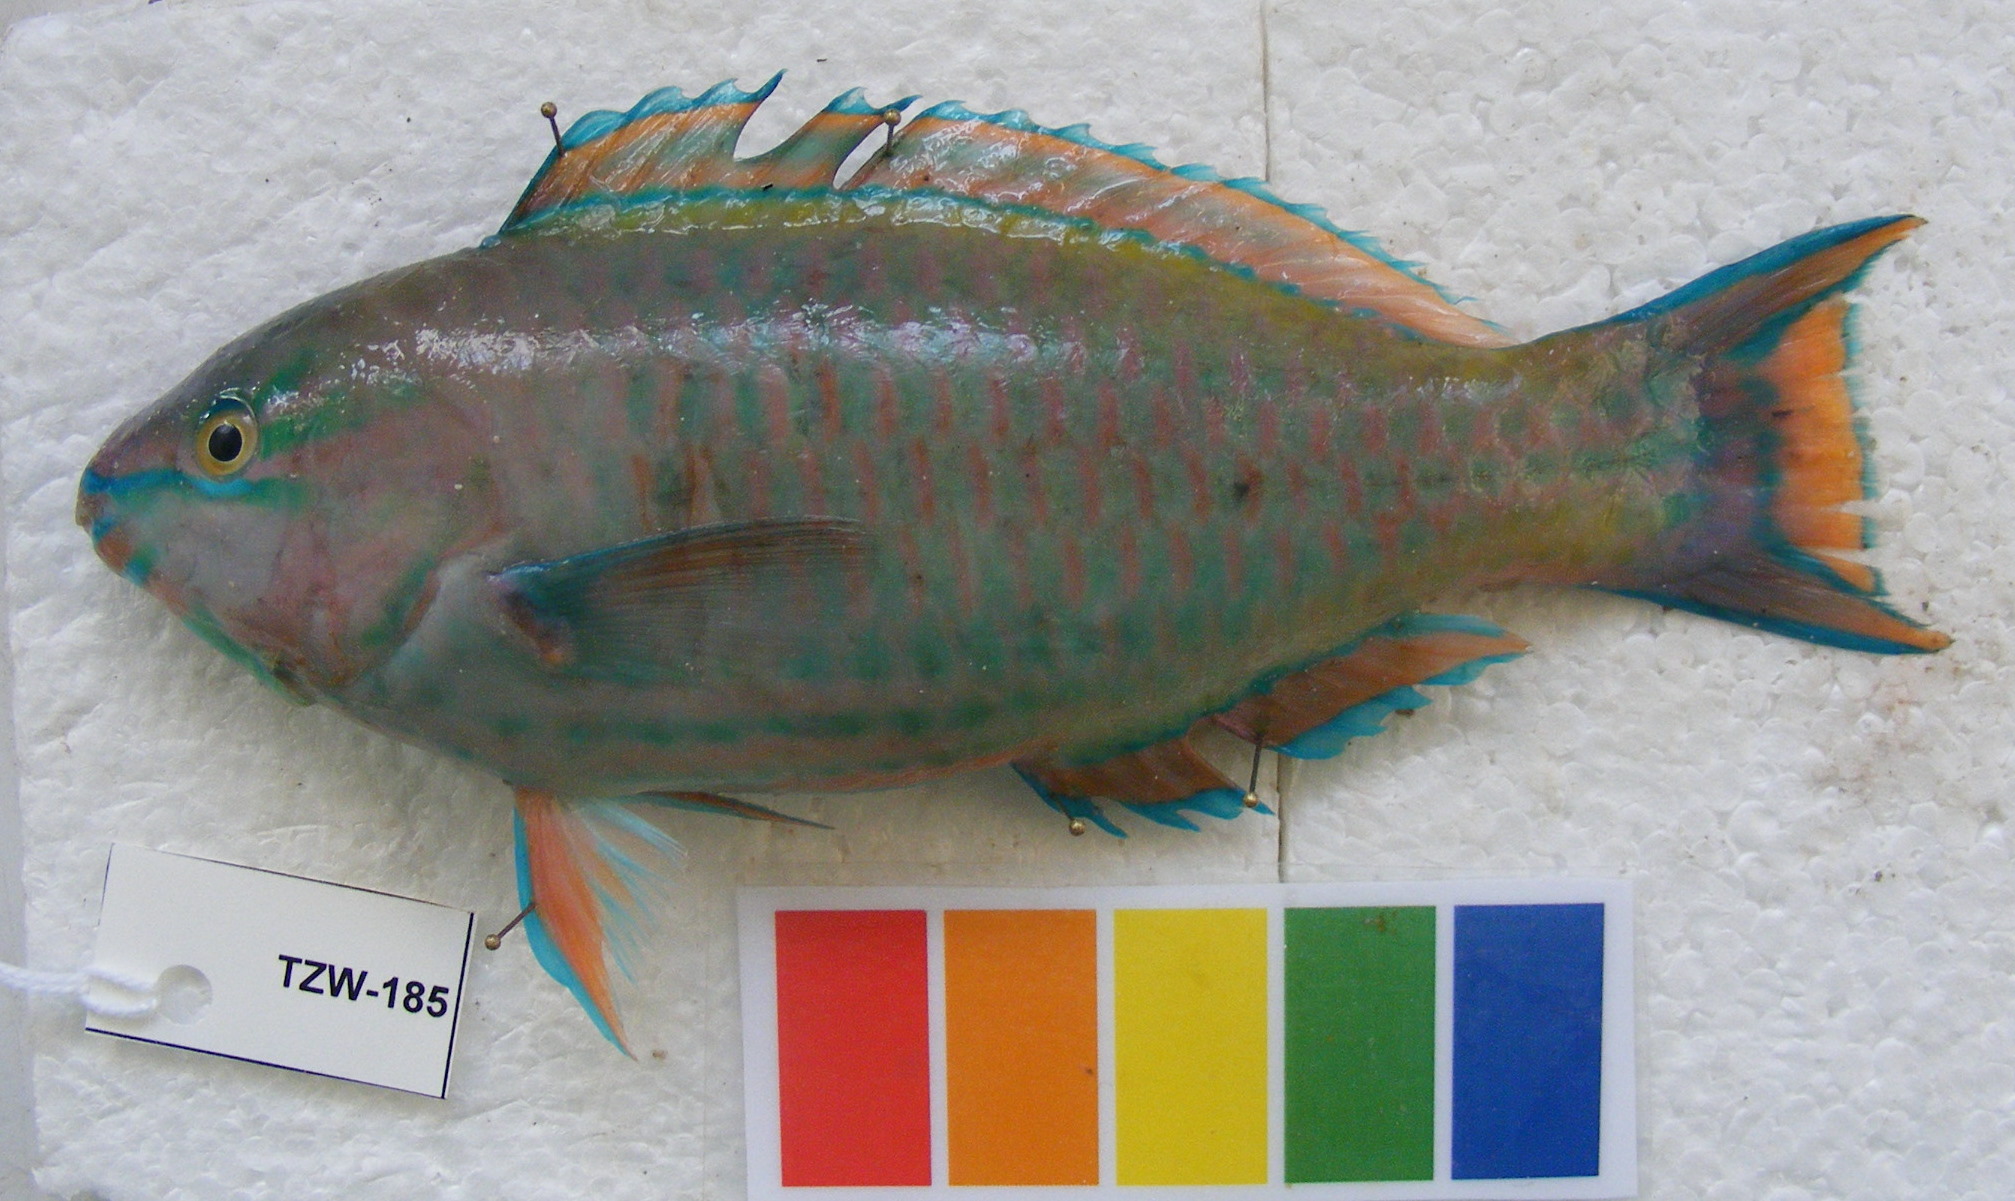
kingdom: Animalia
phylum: Chordata
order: Perciformes
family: Scaridae
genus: Scarus
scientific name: Scarus russelii
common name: Eclipse parrotfish
